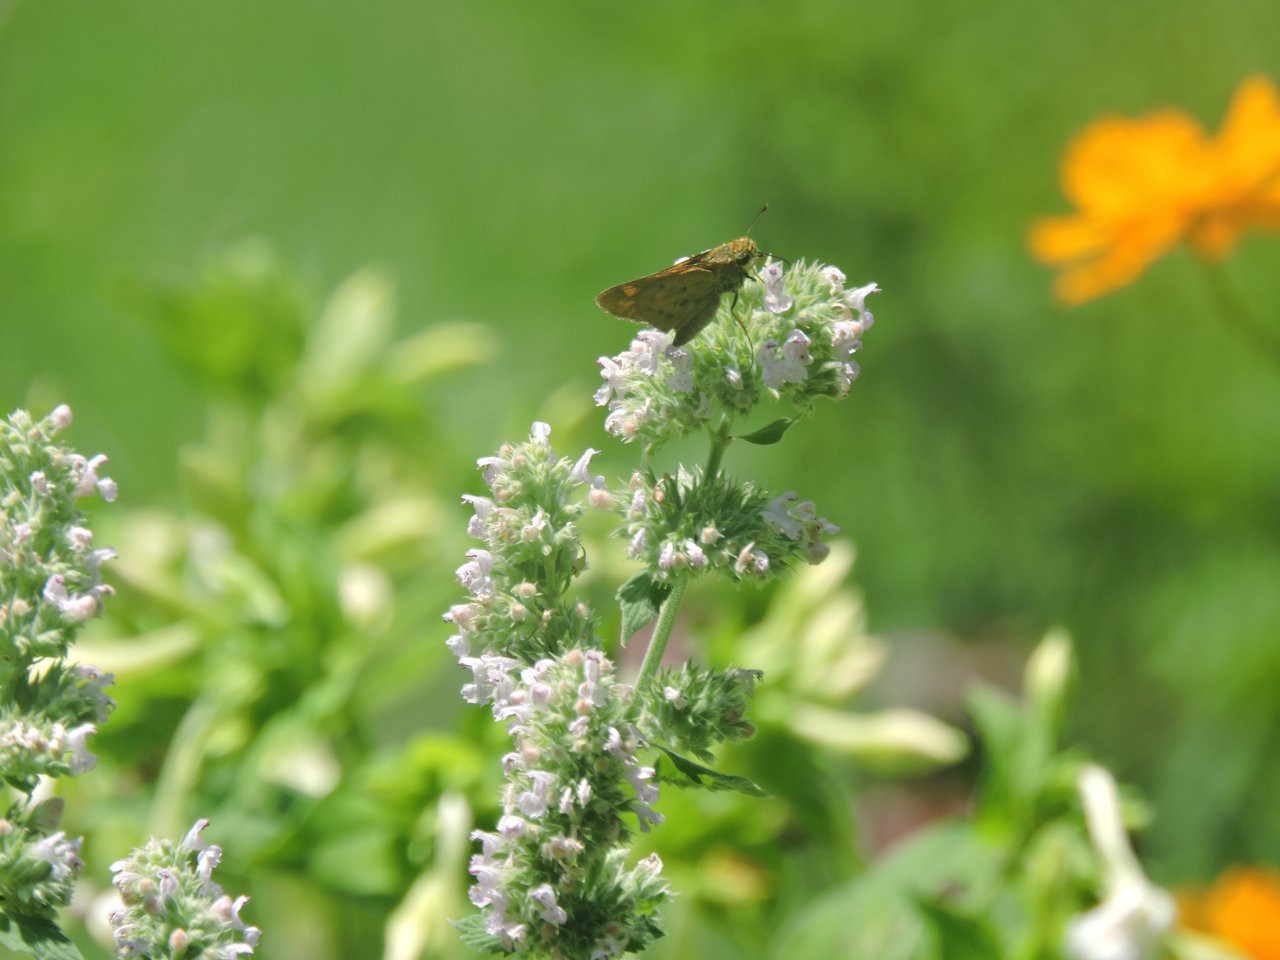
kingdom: Animalia
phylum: Arthropoda
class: Insecta
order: Lepidoptera
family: Hesperiidae
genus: Hylephila
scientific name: Hylephila phyleus
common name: Fiery Skipper
